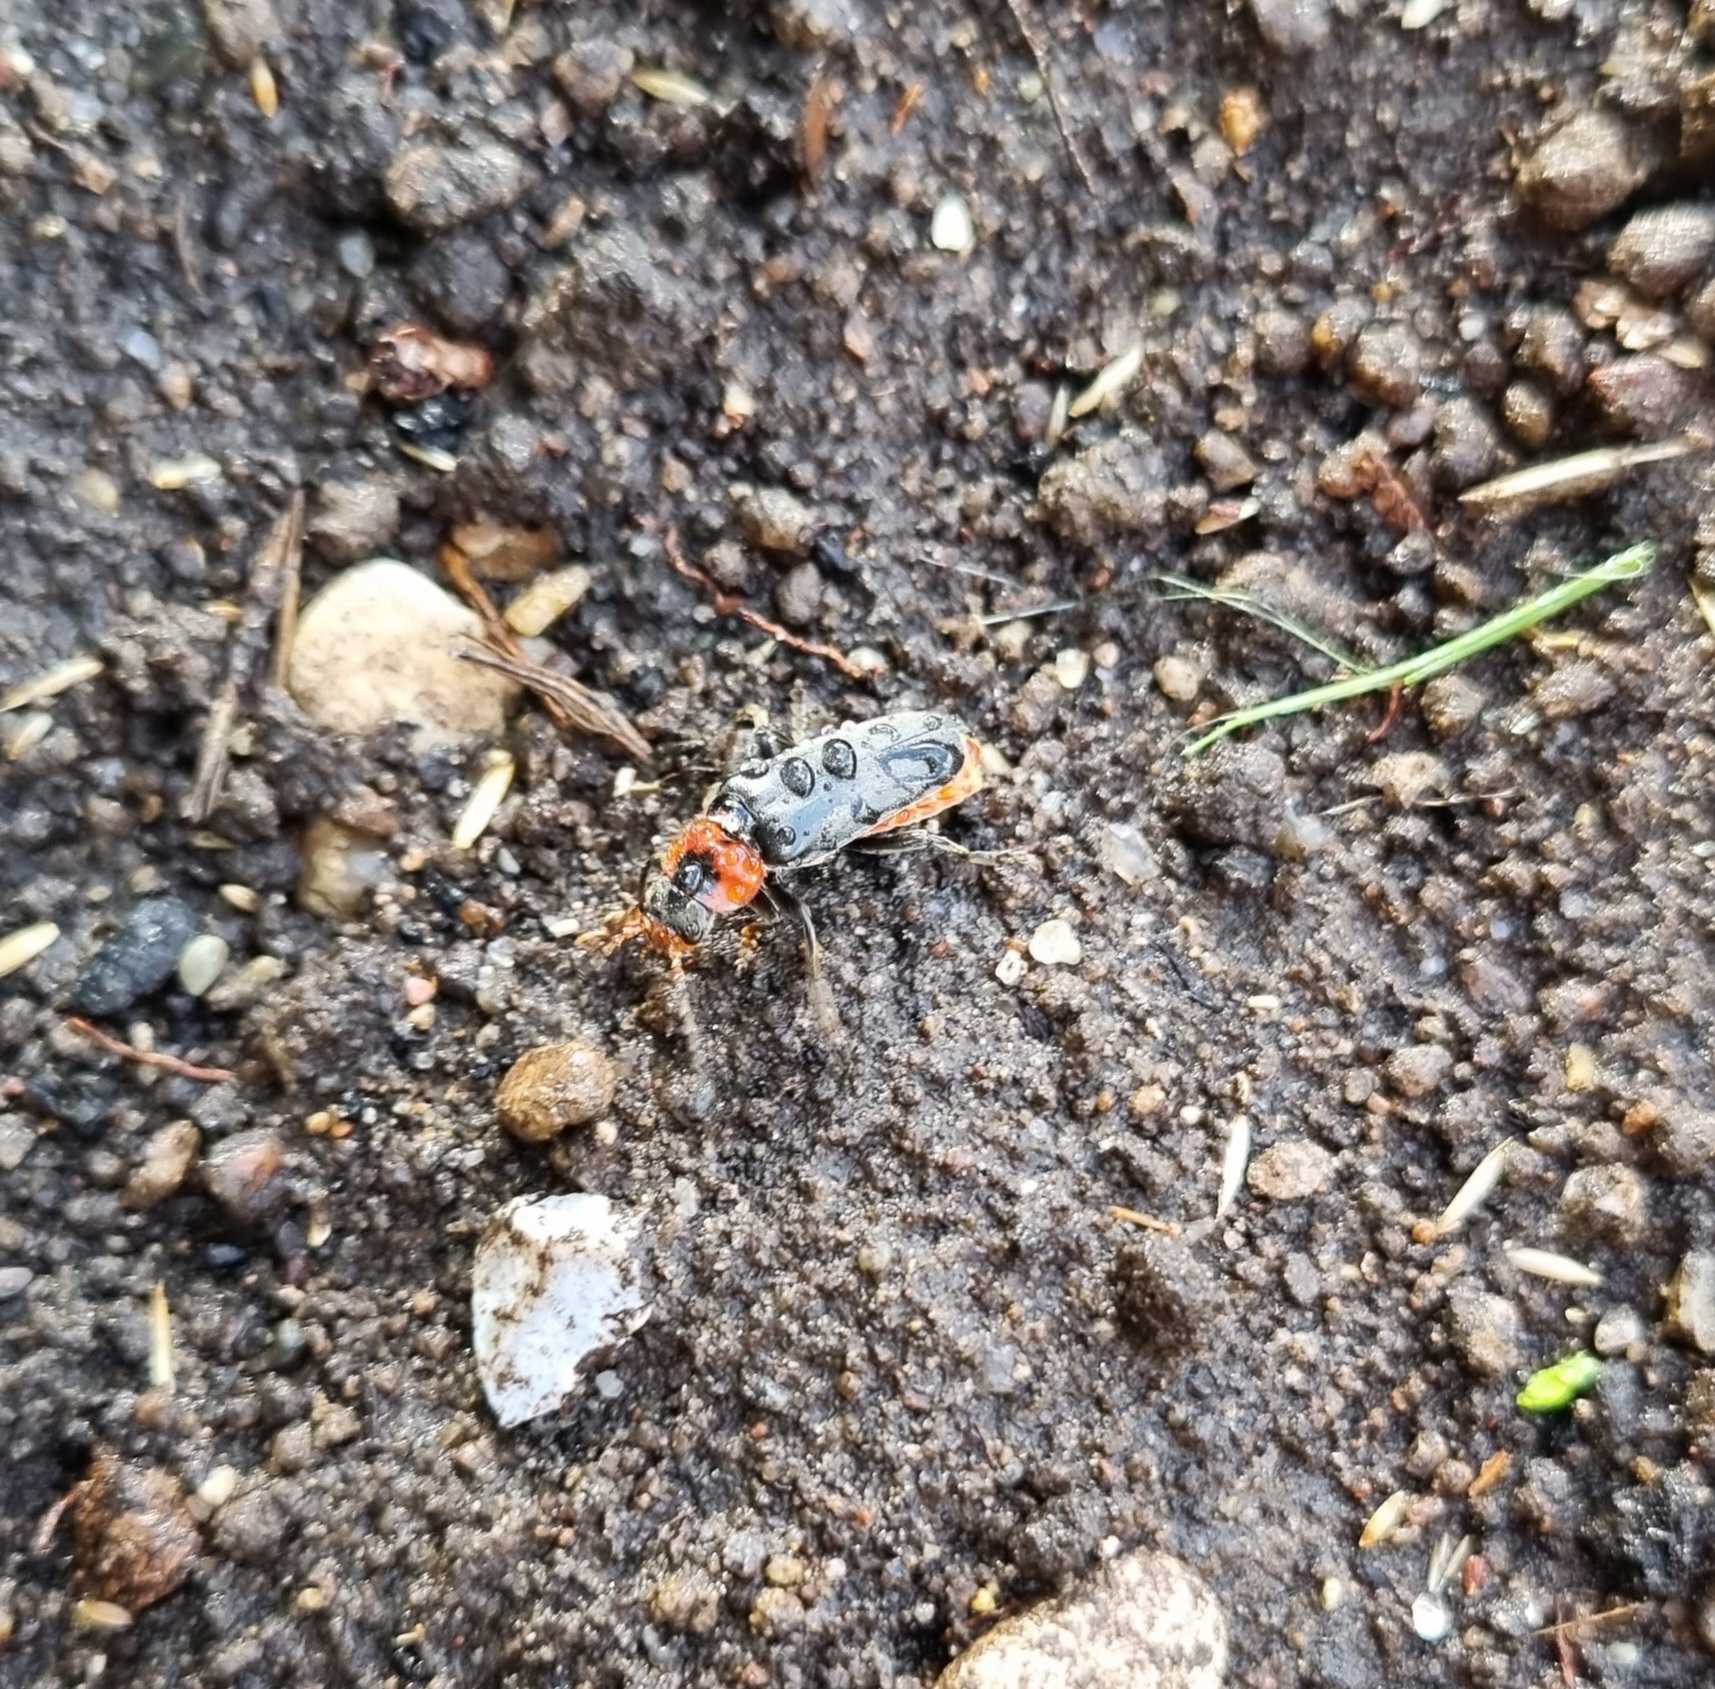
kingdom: Animalia
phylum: Arthropoda
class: Insecta
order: Coleoptera
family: Cantharidae
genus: Cantharis
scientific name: Cantharis fusca
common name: Stor blødvinge
